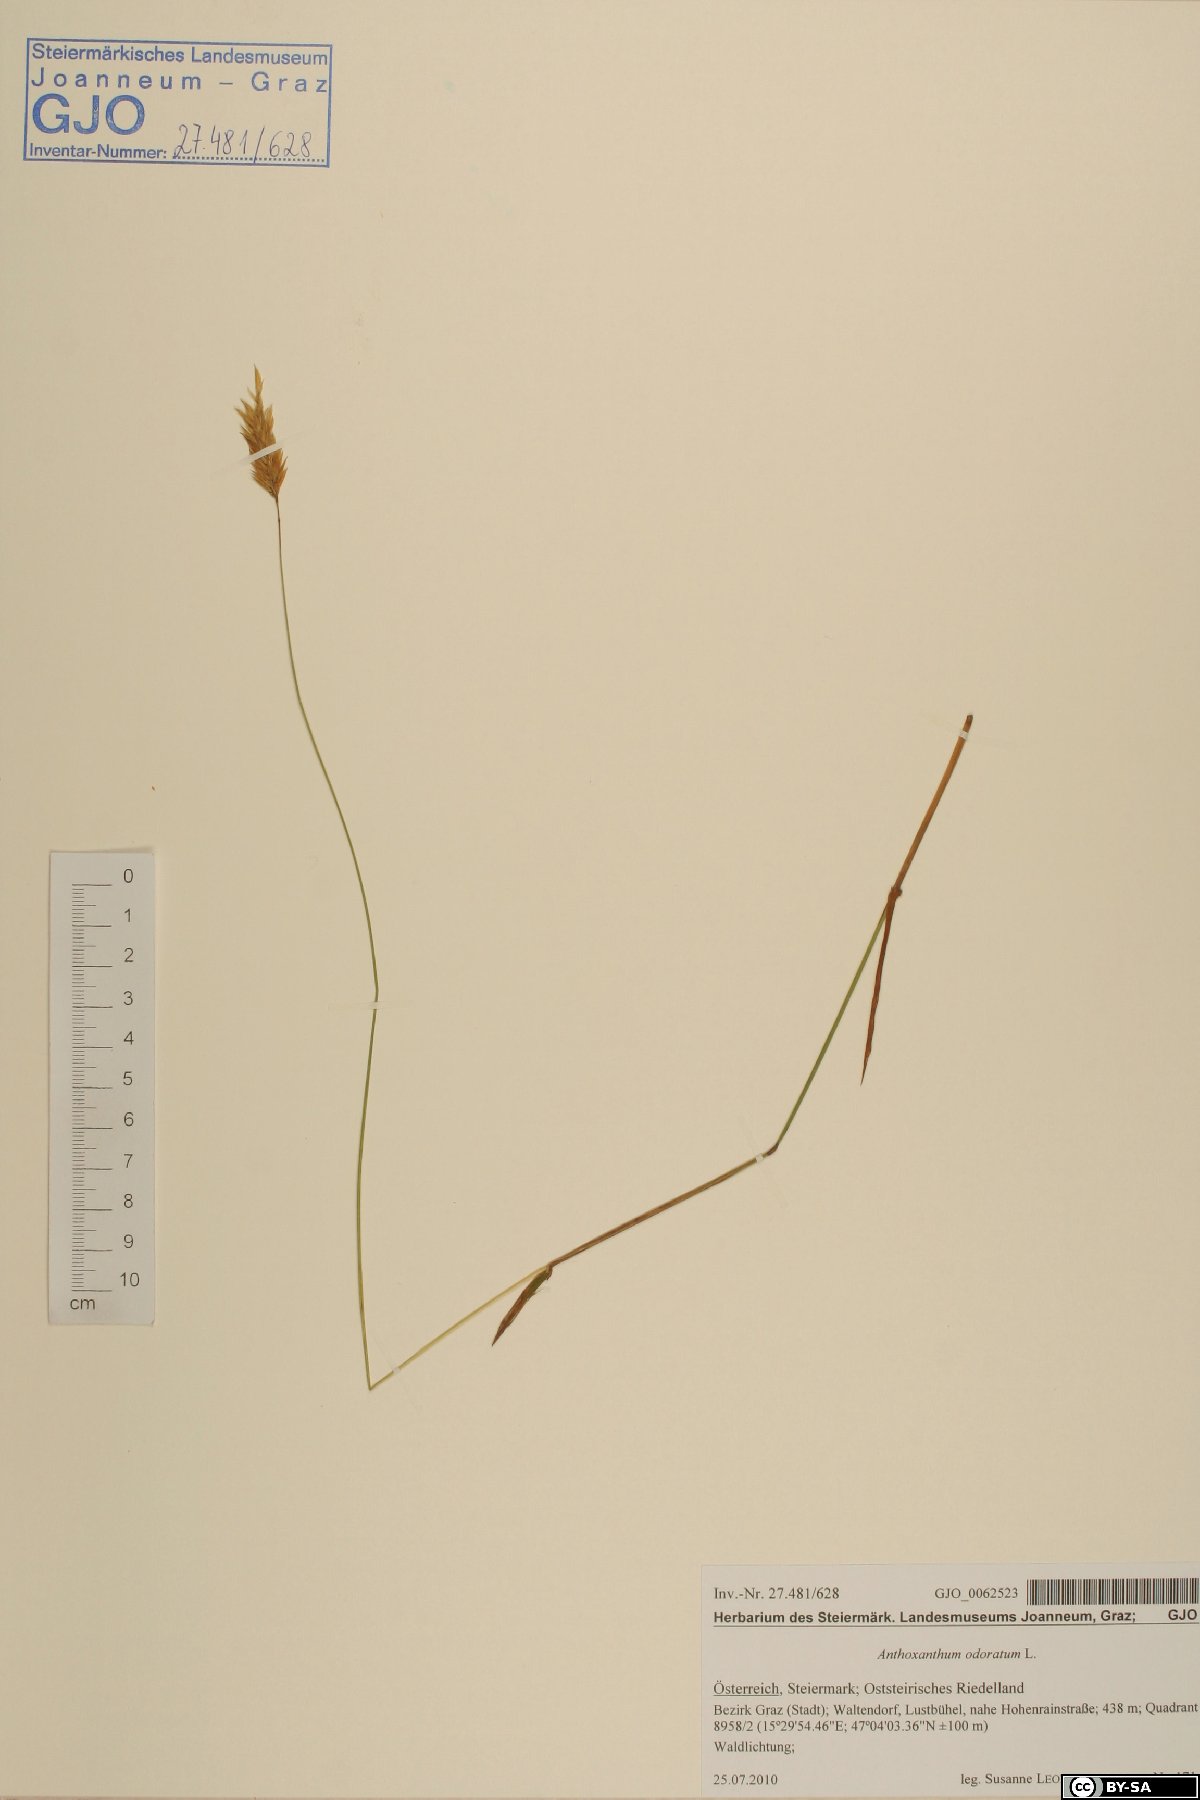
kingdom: Plantae
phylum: Tracheophyta
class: Liliopsida
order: Poales
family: Poaceae
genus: Anthoxanthum
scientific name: Anthoxanthum odoratum
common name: Sweet vernalgrass
